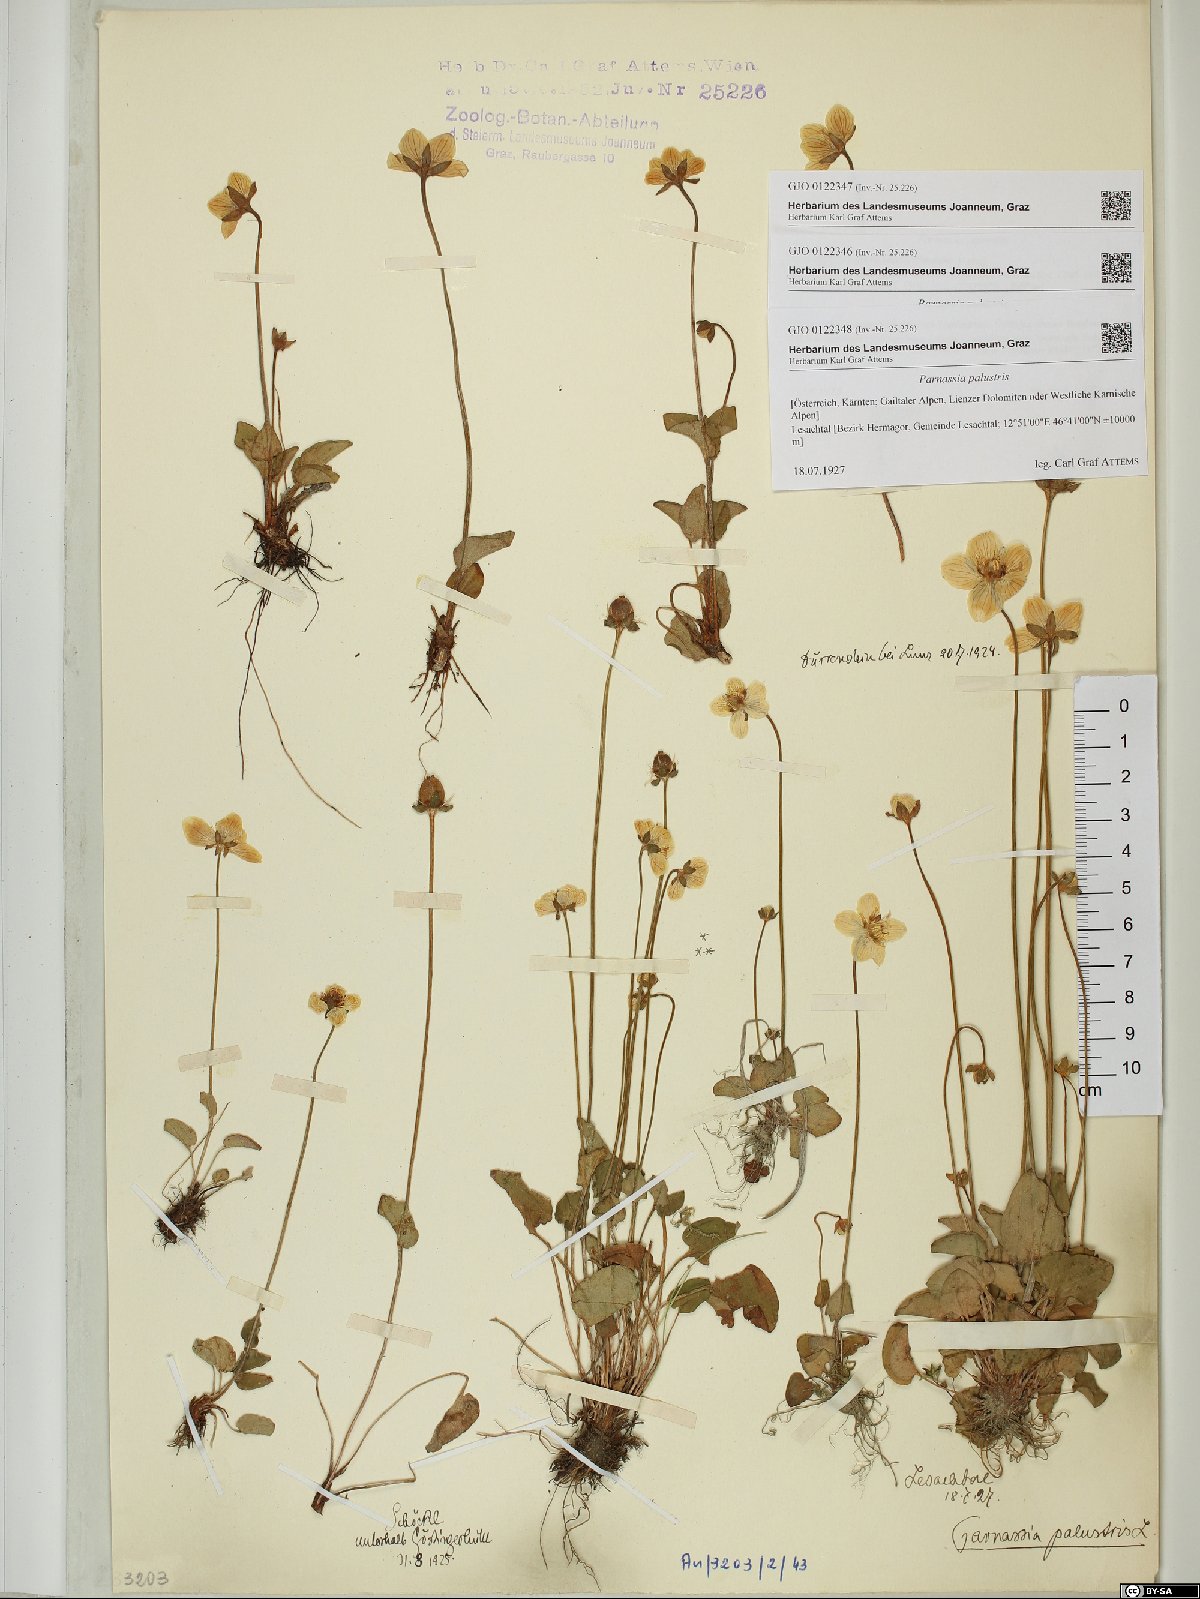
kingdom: Plantae
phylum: Tracheophyta
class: Magnoliopsida
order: Celastrales
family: Parnassiaceae
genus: Parnassia
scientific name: Parnassia palustris
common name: Grass-of-parnassus
